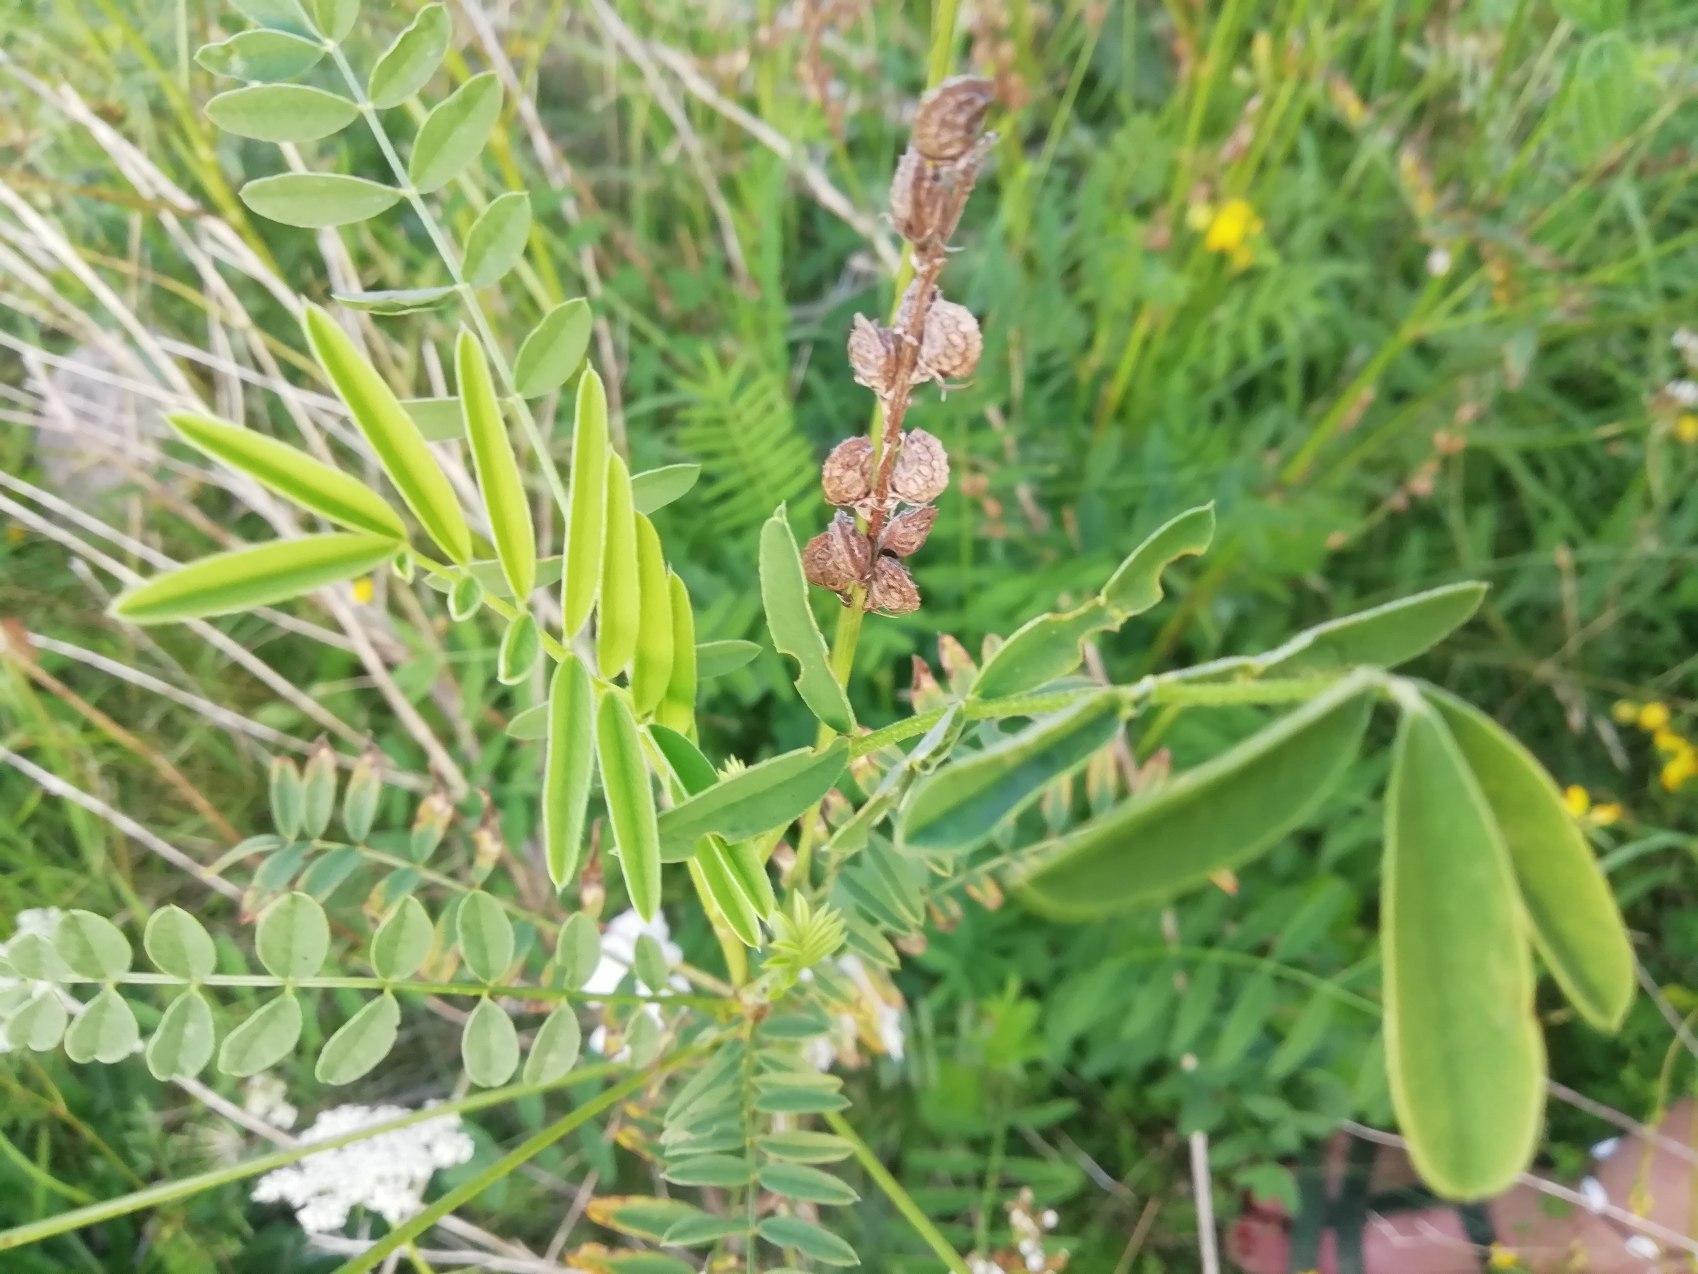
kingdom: Plantae
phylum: Tracheophyta
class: Magnoliopsida
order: Fabales
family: Fabaceae
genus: Onobrychis
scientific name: Onobrychis viciifolia
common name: Esparsette
